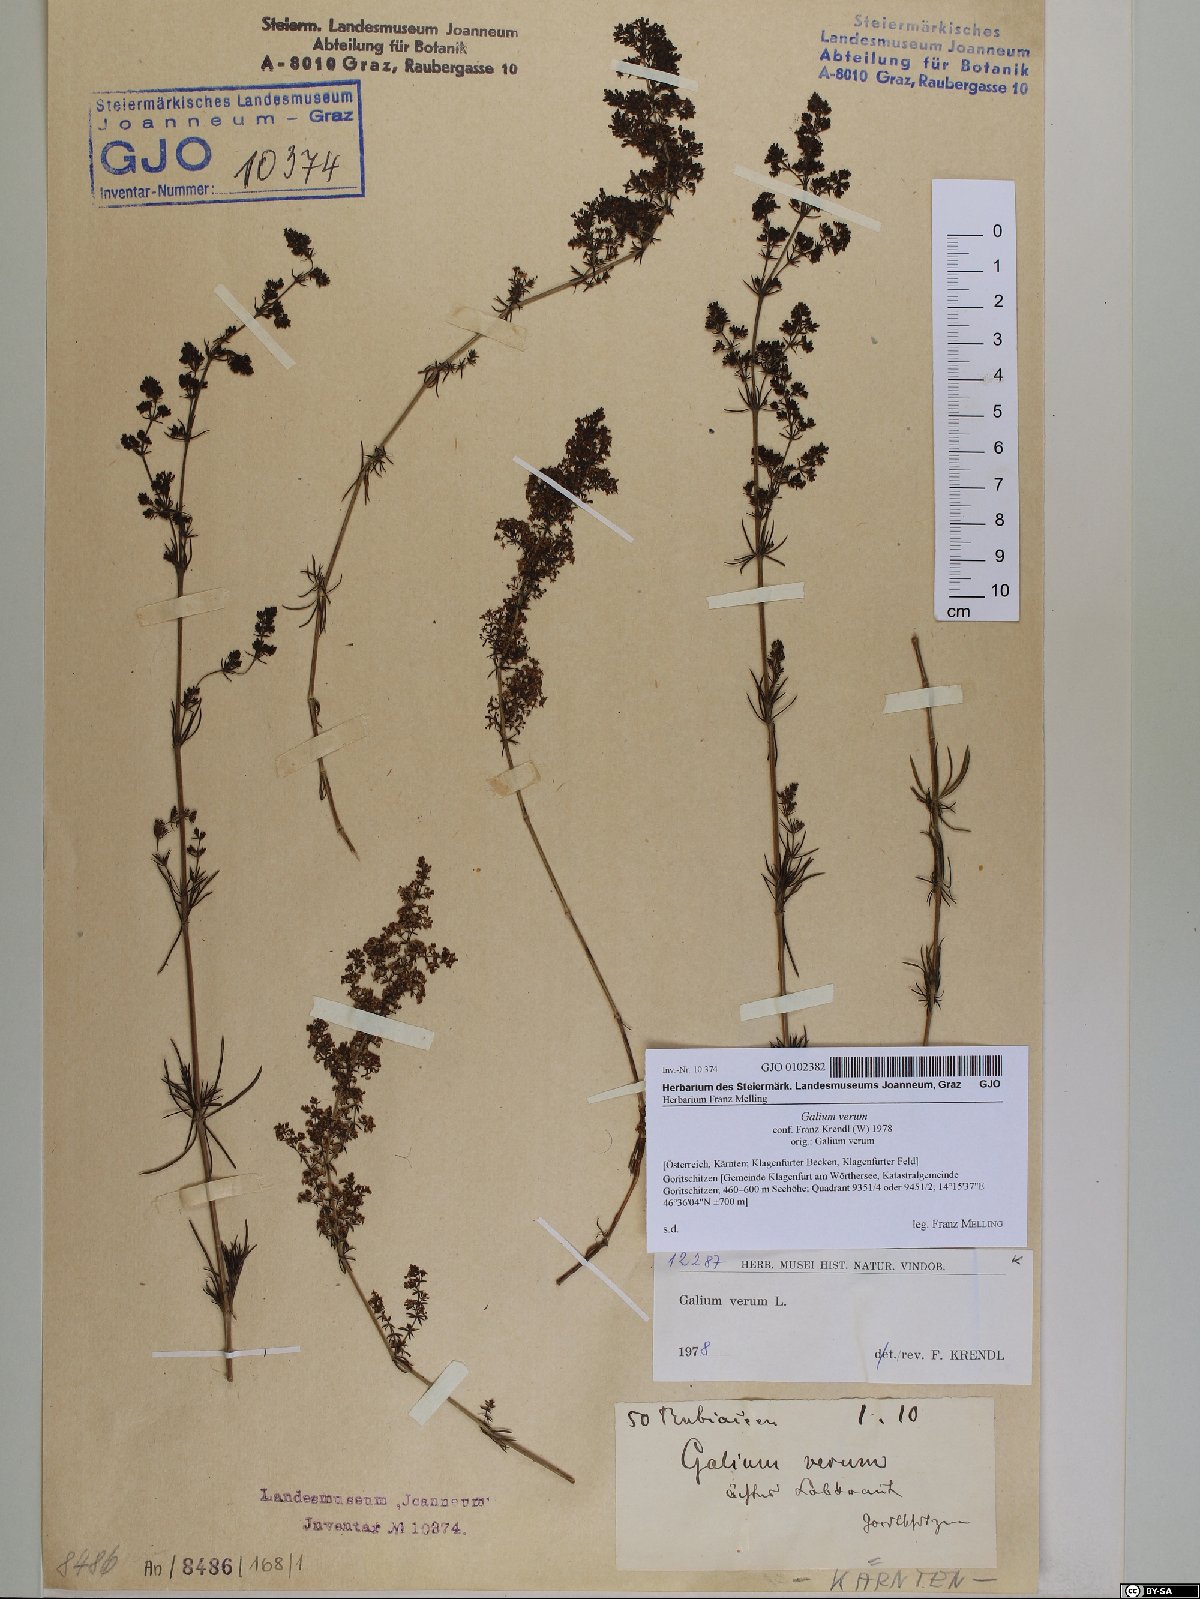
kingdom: Plantae
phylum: Tracheophyta
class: Magnoliopsida
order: Gentianales
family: Rubiaceae
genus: Galium
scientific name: Galium verum
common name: Lady's bedstraw
